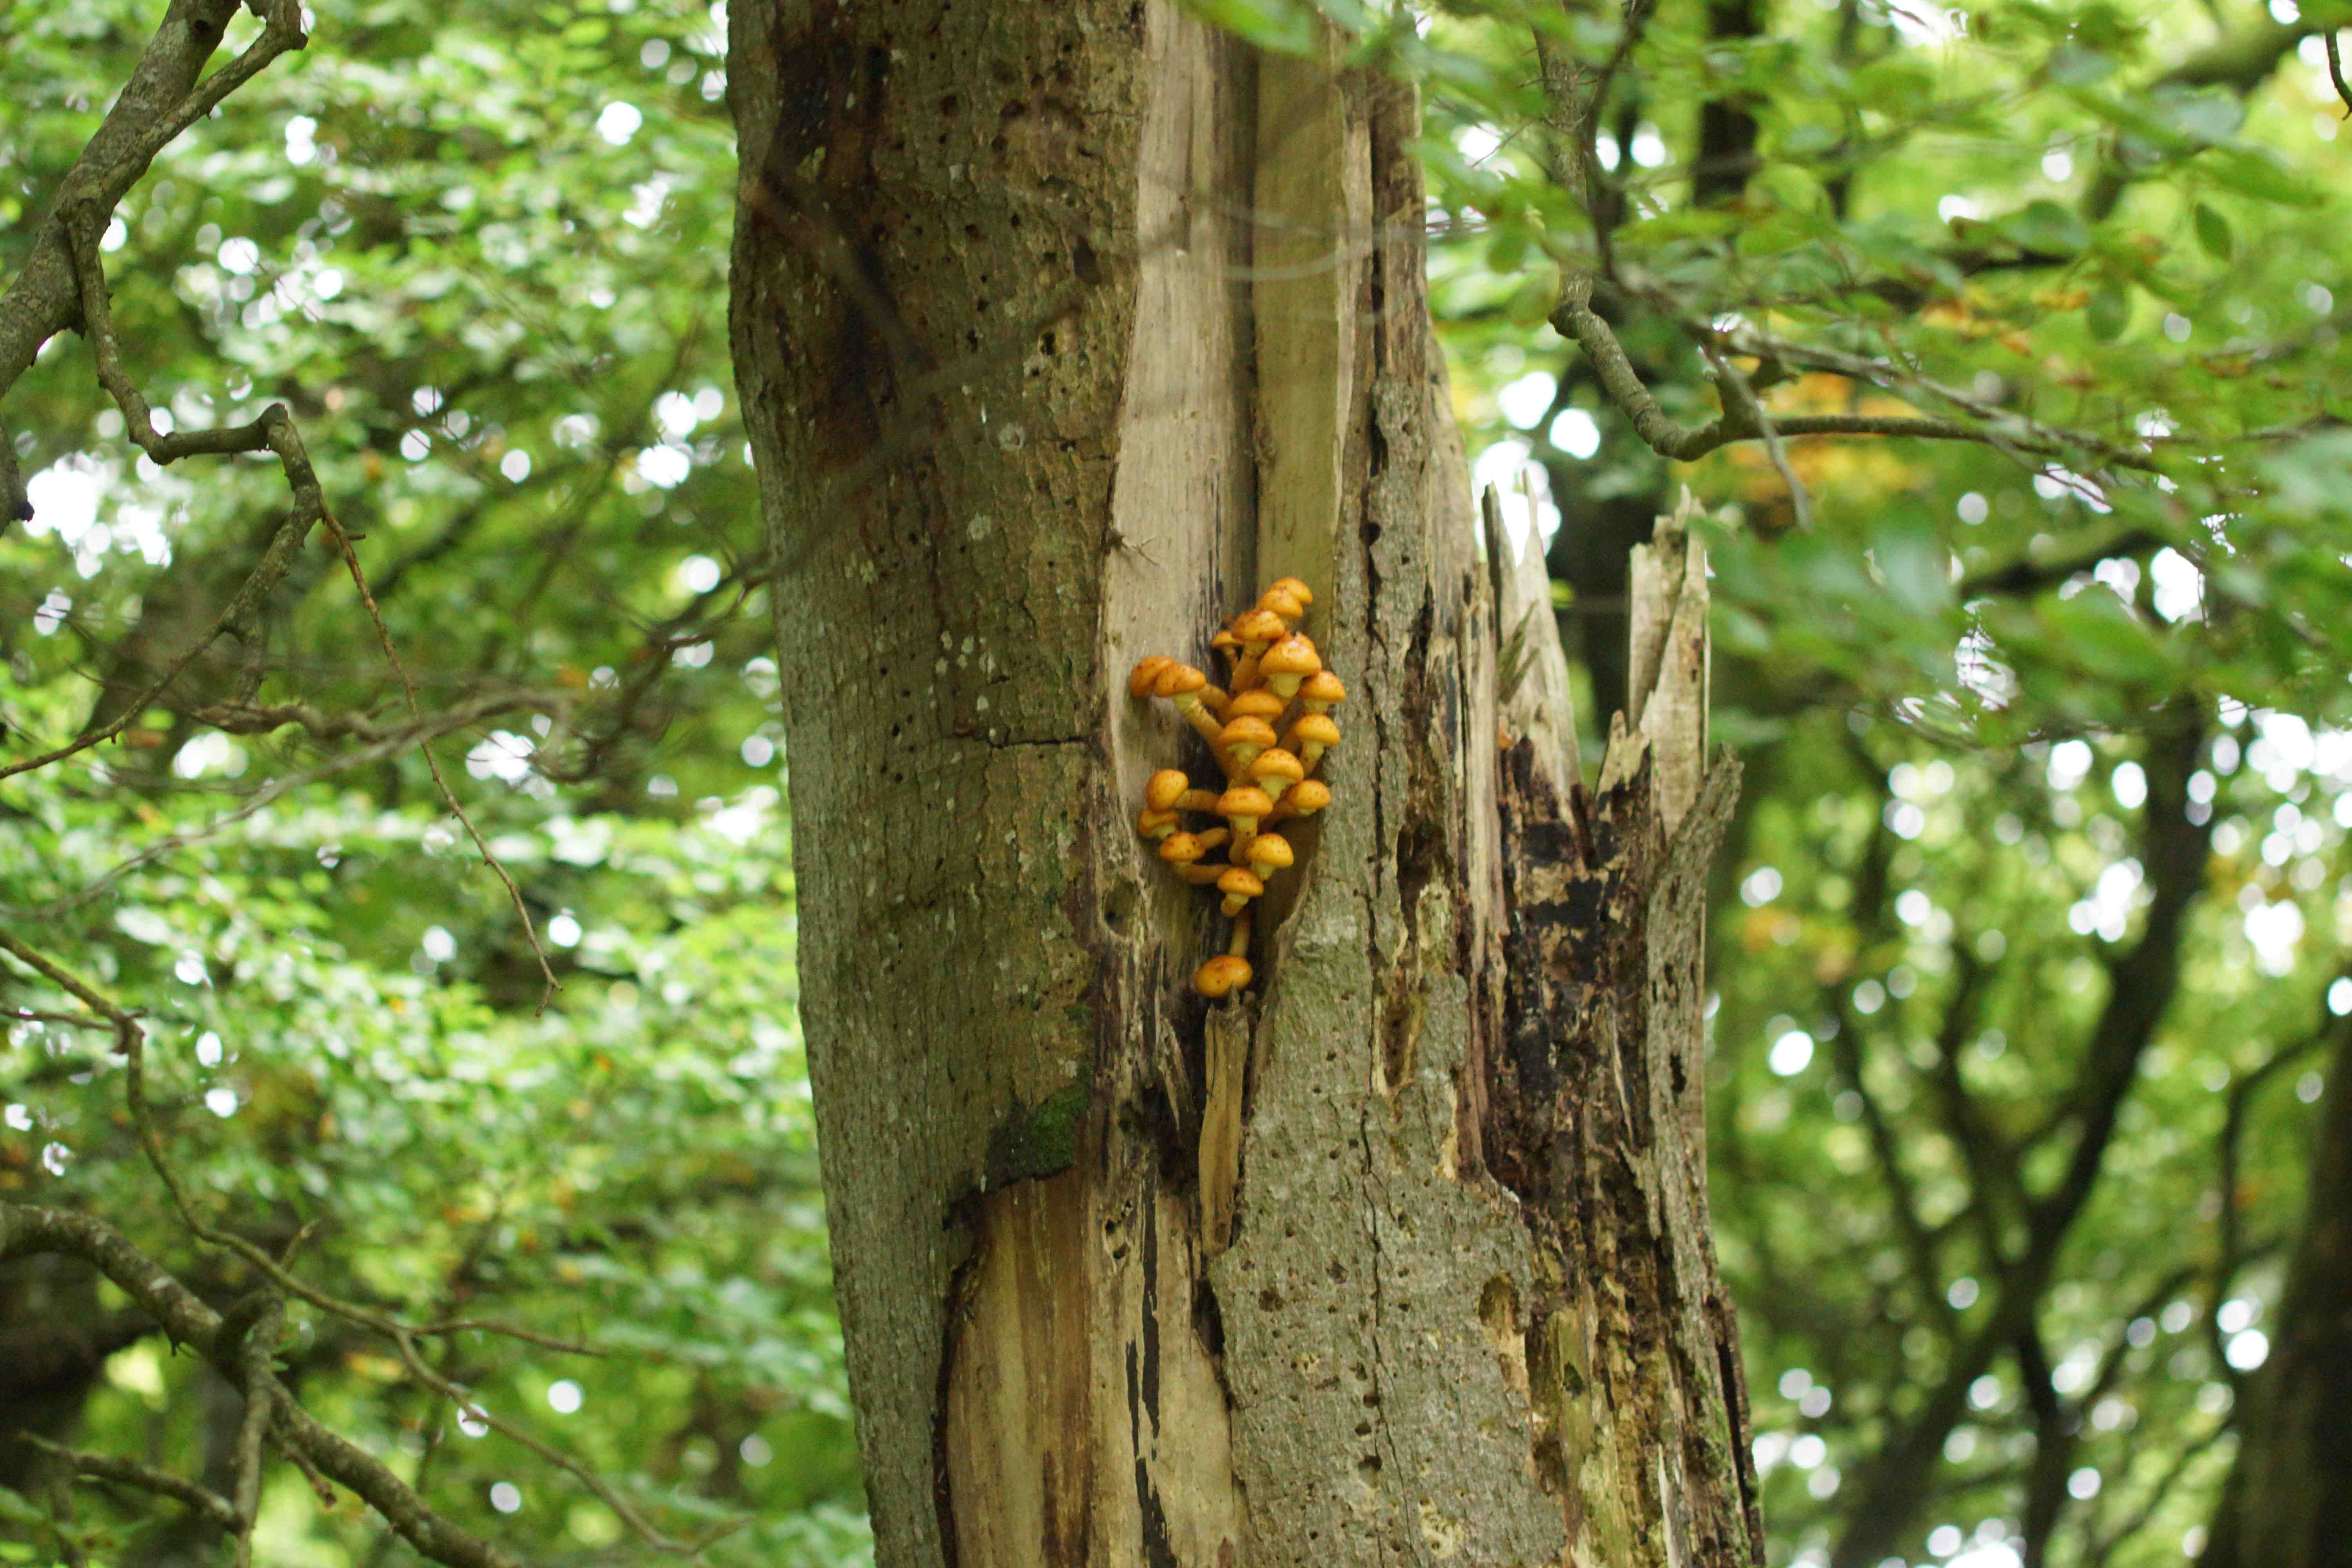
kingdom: Fungi
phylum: Basidiomycota
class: Agaricomycetes
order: Agaricales
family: Strophariaceae
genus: Pholiota
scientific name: Pholiota adiposa
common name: højtsiddende skælhat
